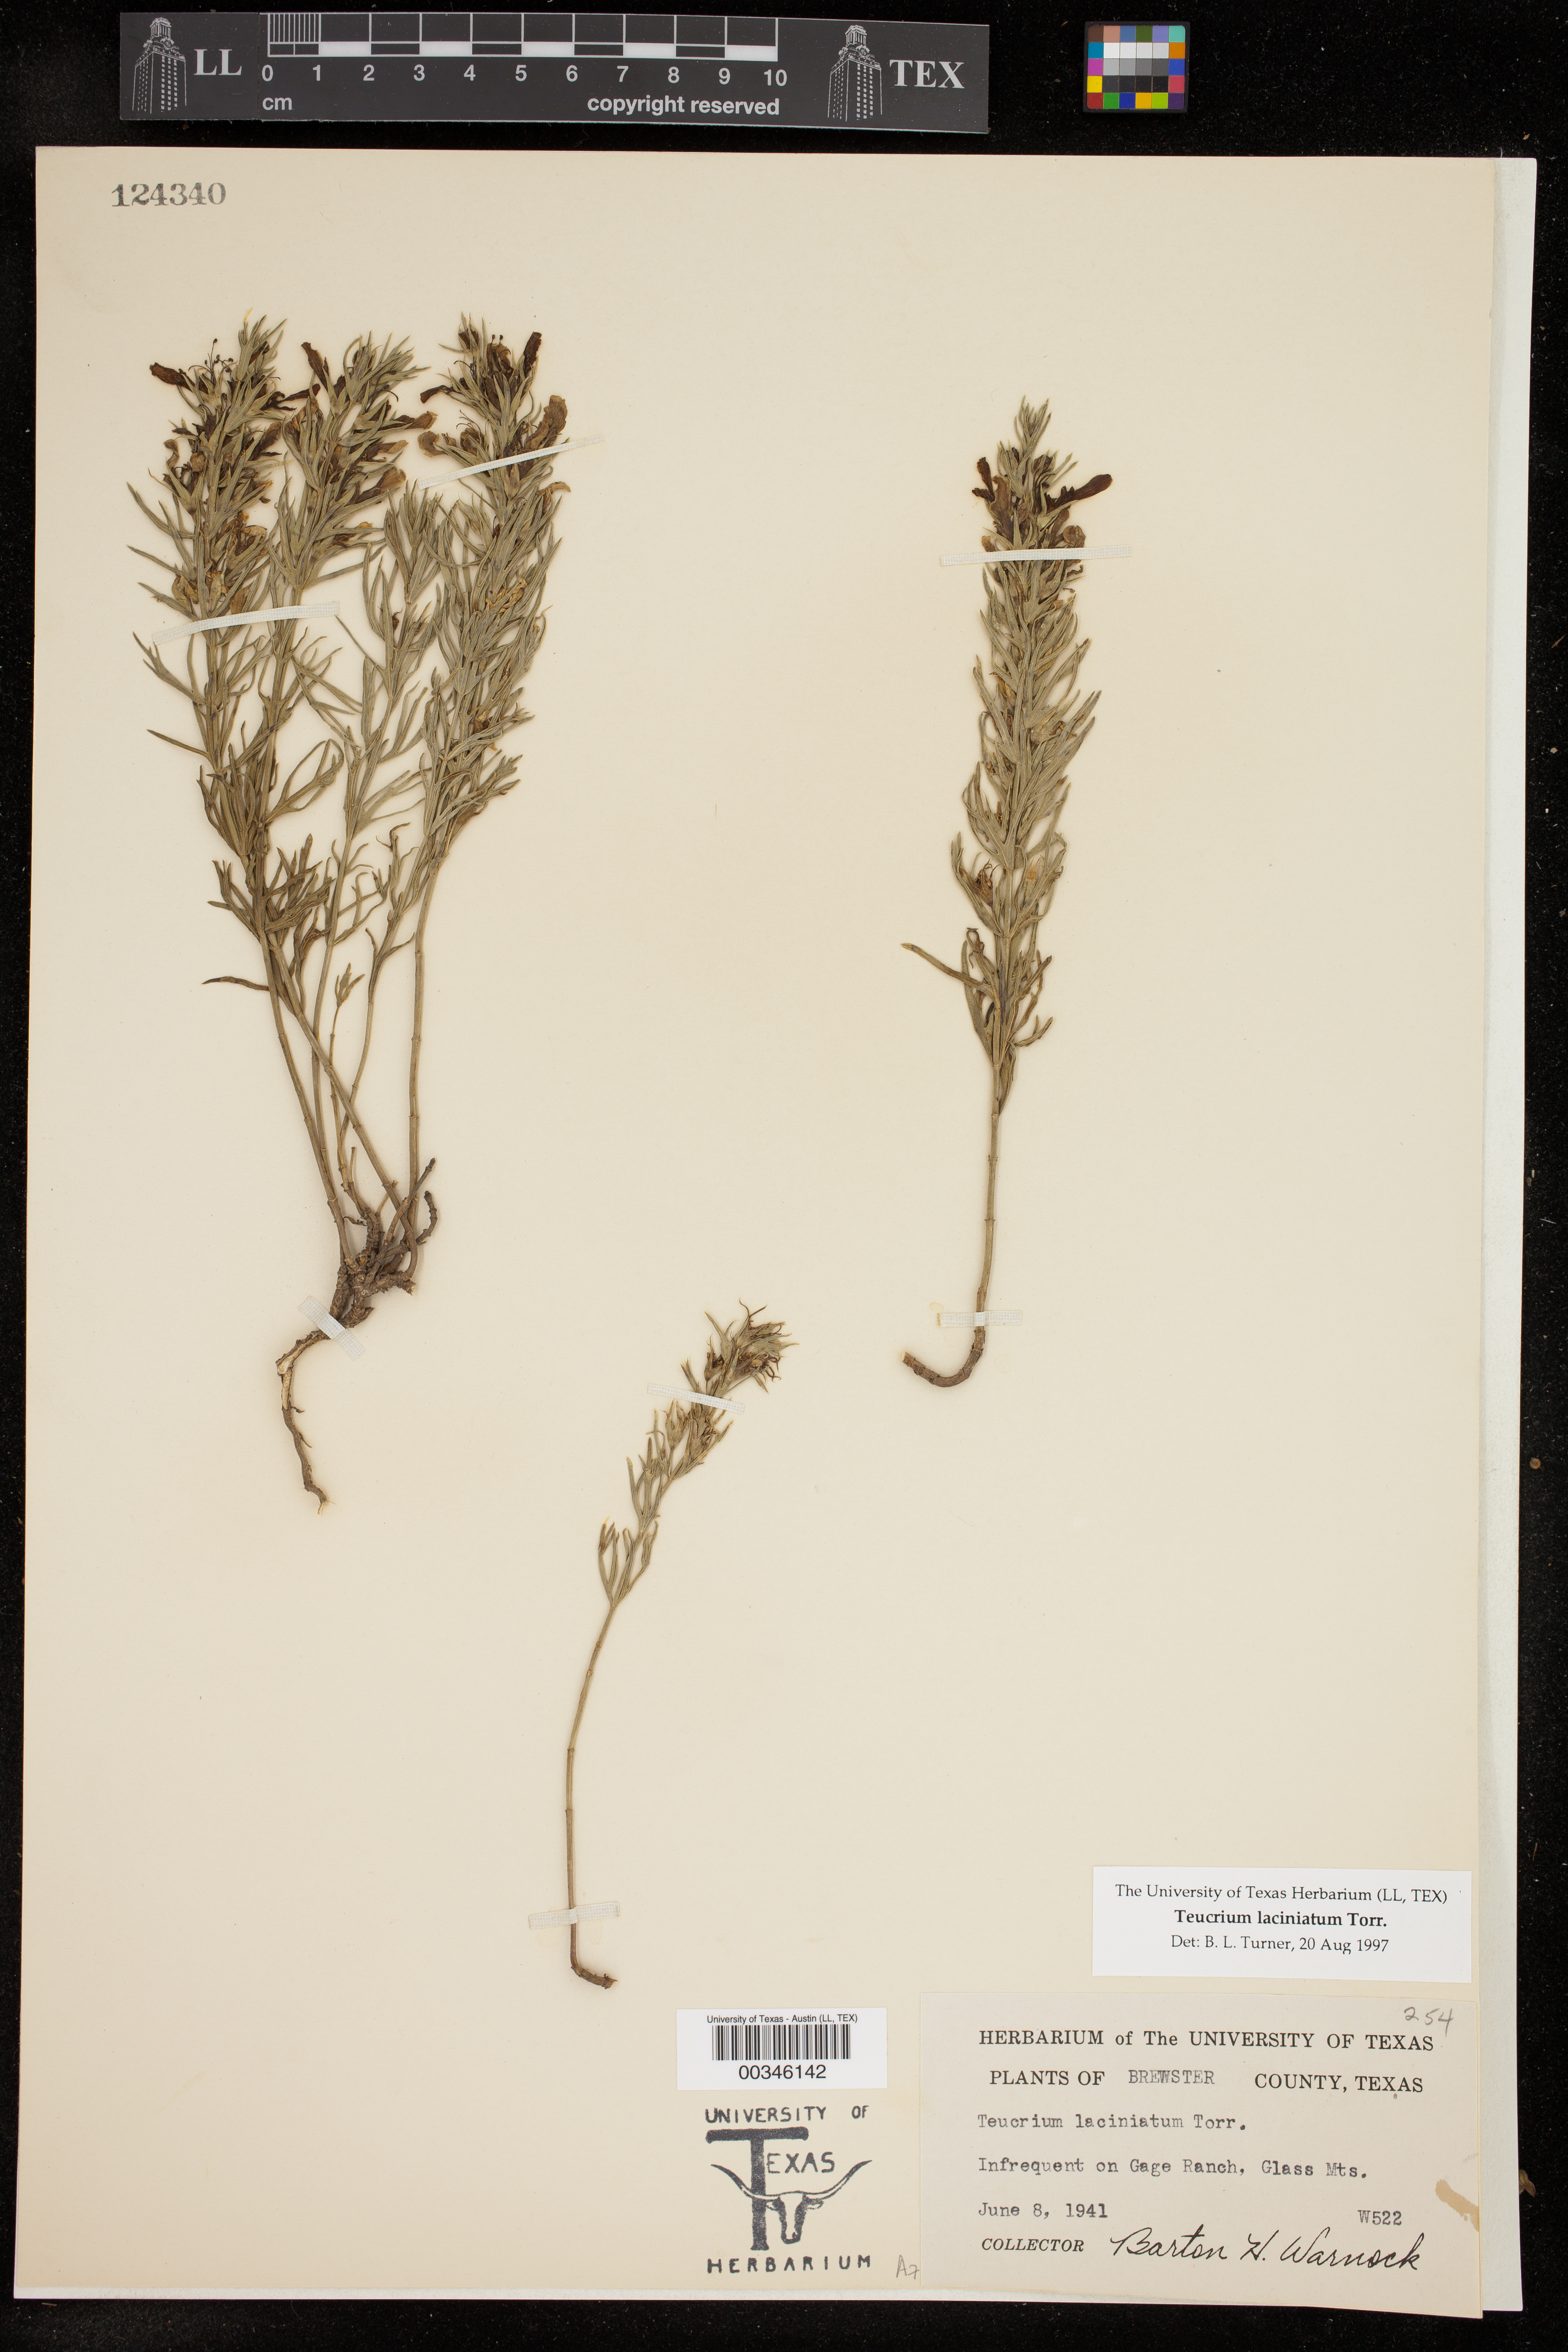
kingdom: Plantae
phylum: Tracheophyta
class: Magnoliopsida
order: Lamiales
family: Lamiaceae
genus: Teucrium
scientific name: Teucrium laciniatum
